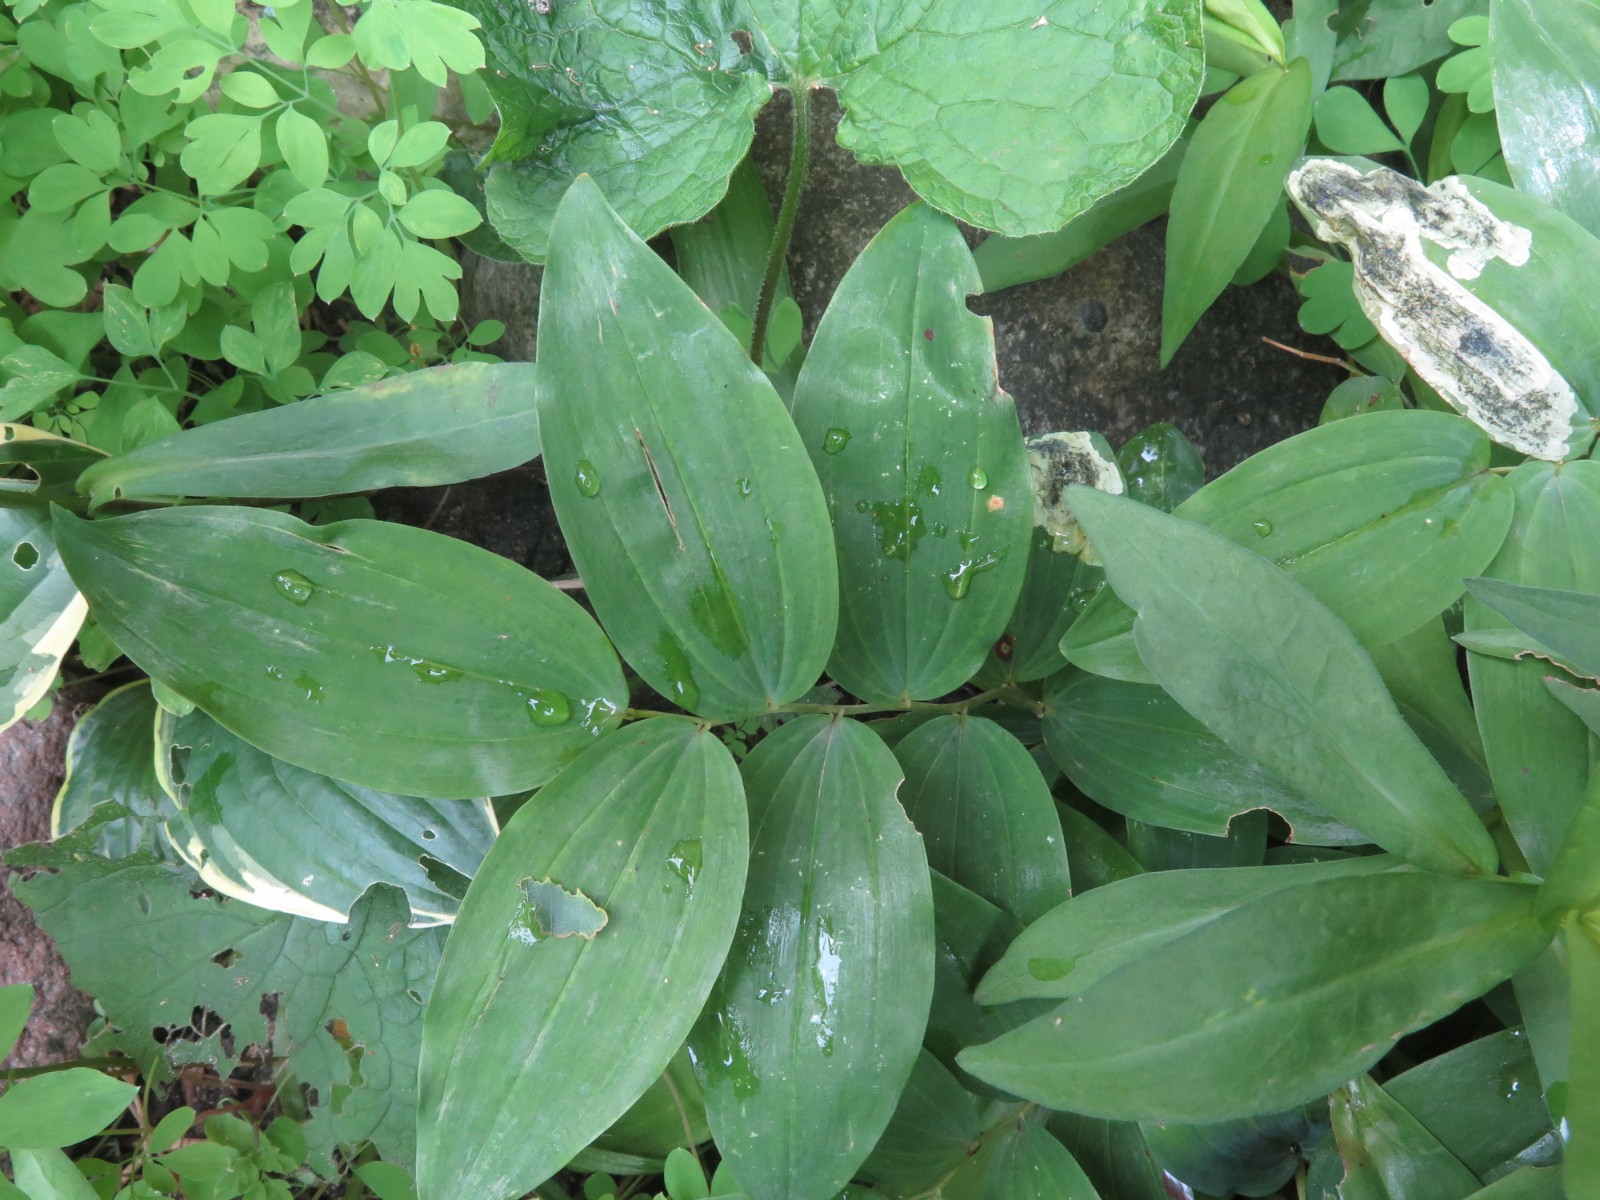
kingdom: Fungi
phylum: Basidiomycota
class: Pucciniomycetes
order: Pucciniales
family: Pucciniaceae
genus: Puccinia
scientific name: Puccinia sessilis
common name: Arum rust
